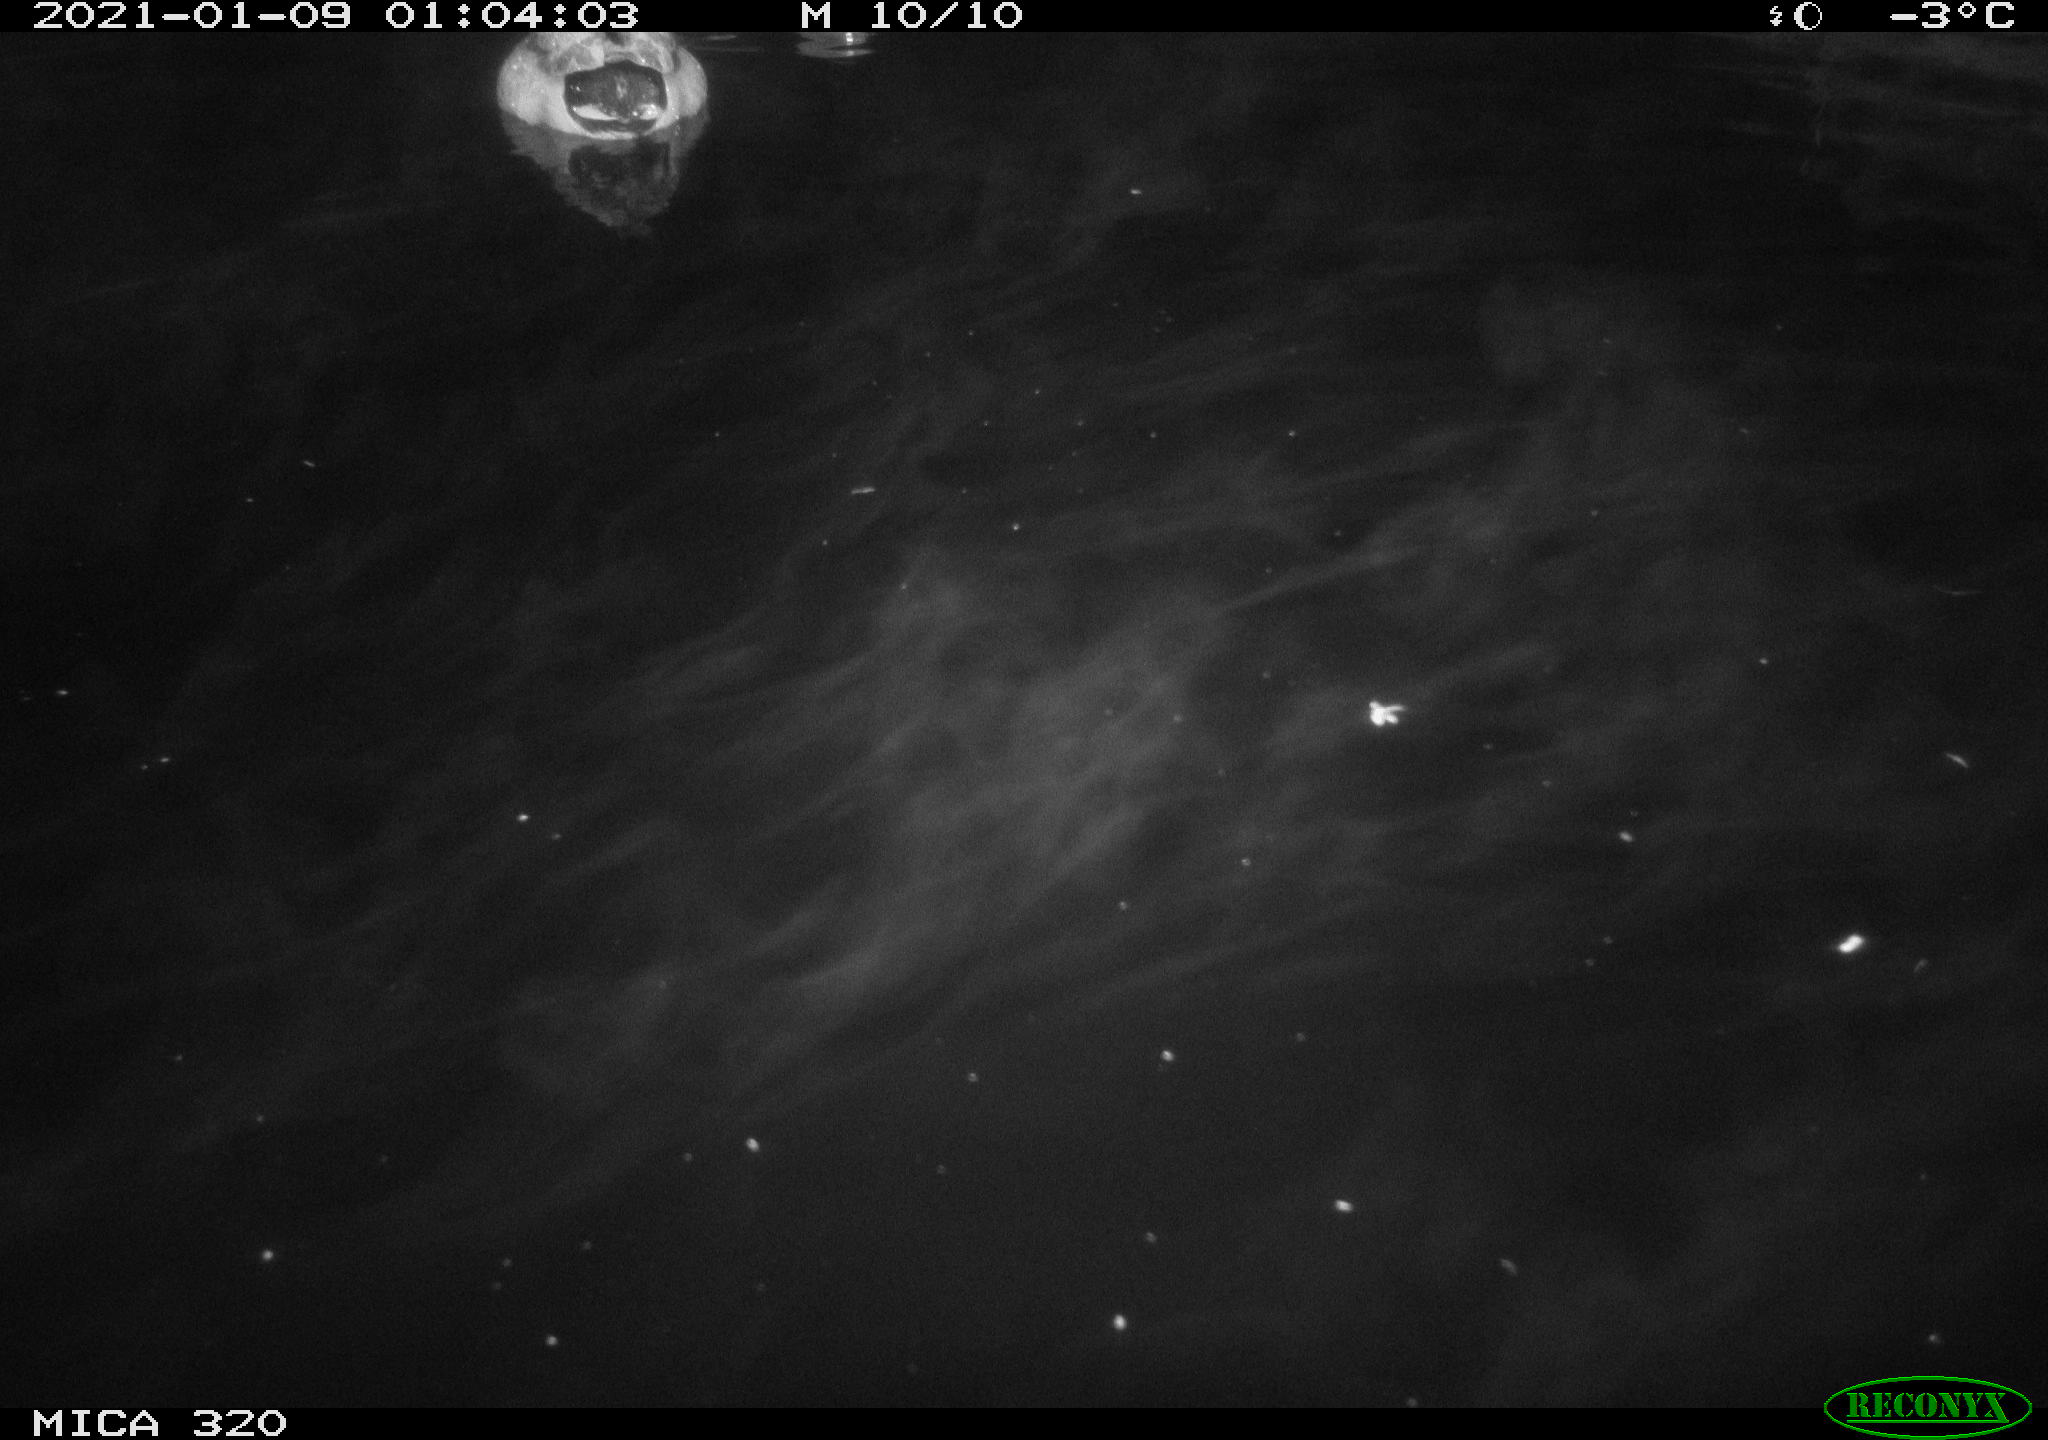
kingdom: Animalia
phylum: Chordata
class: Aves
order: Anseriformes
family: Anatidae
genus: Anas
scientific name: Anas platyrhynchos
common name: Mallard
